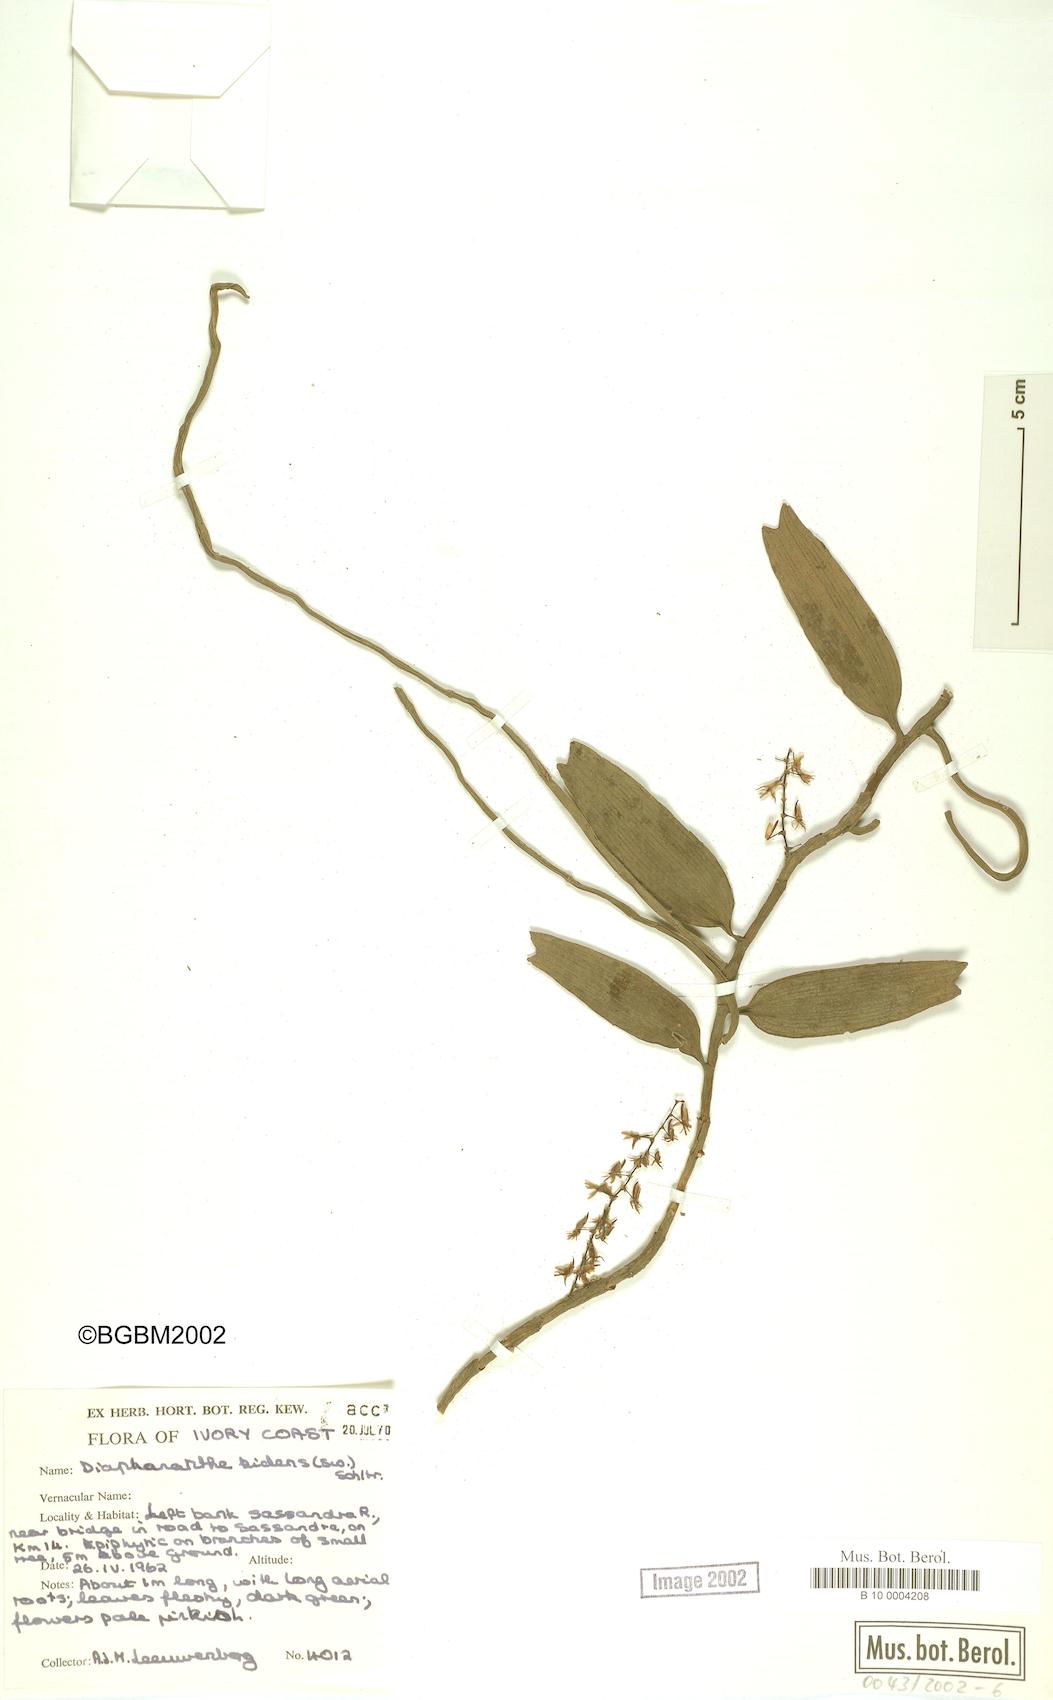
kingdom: Plantae
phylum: Tracheophyta
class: Liliopsida
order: Asparagales
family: Orchidaceae
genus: Diaphananthe
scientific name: Diaphananthe bidens
